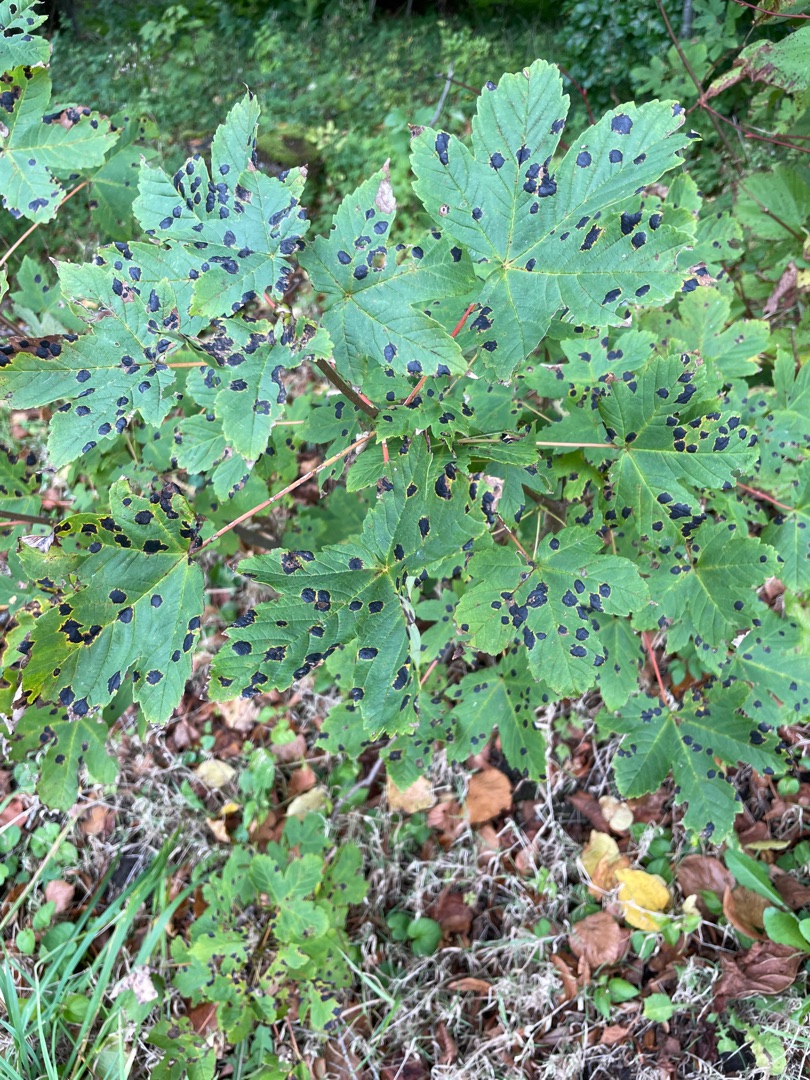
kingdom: Fungi
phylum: Ascomycota
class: Leotiomycetes
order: Rhytismatales
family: Rhytismataceae
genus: Rhytisma
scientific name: Rhytisma acerinum
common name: Ahorn-rynkeplet
